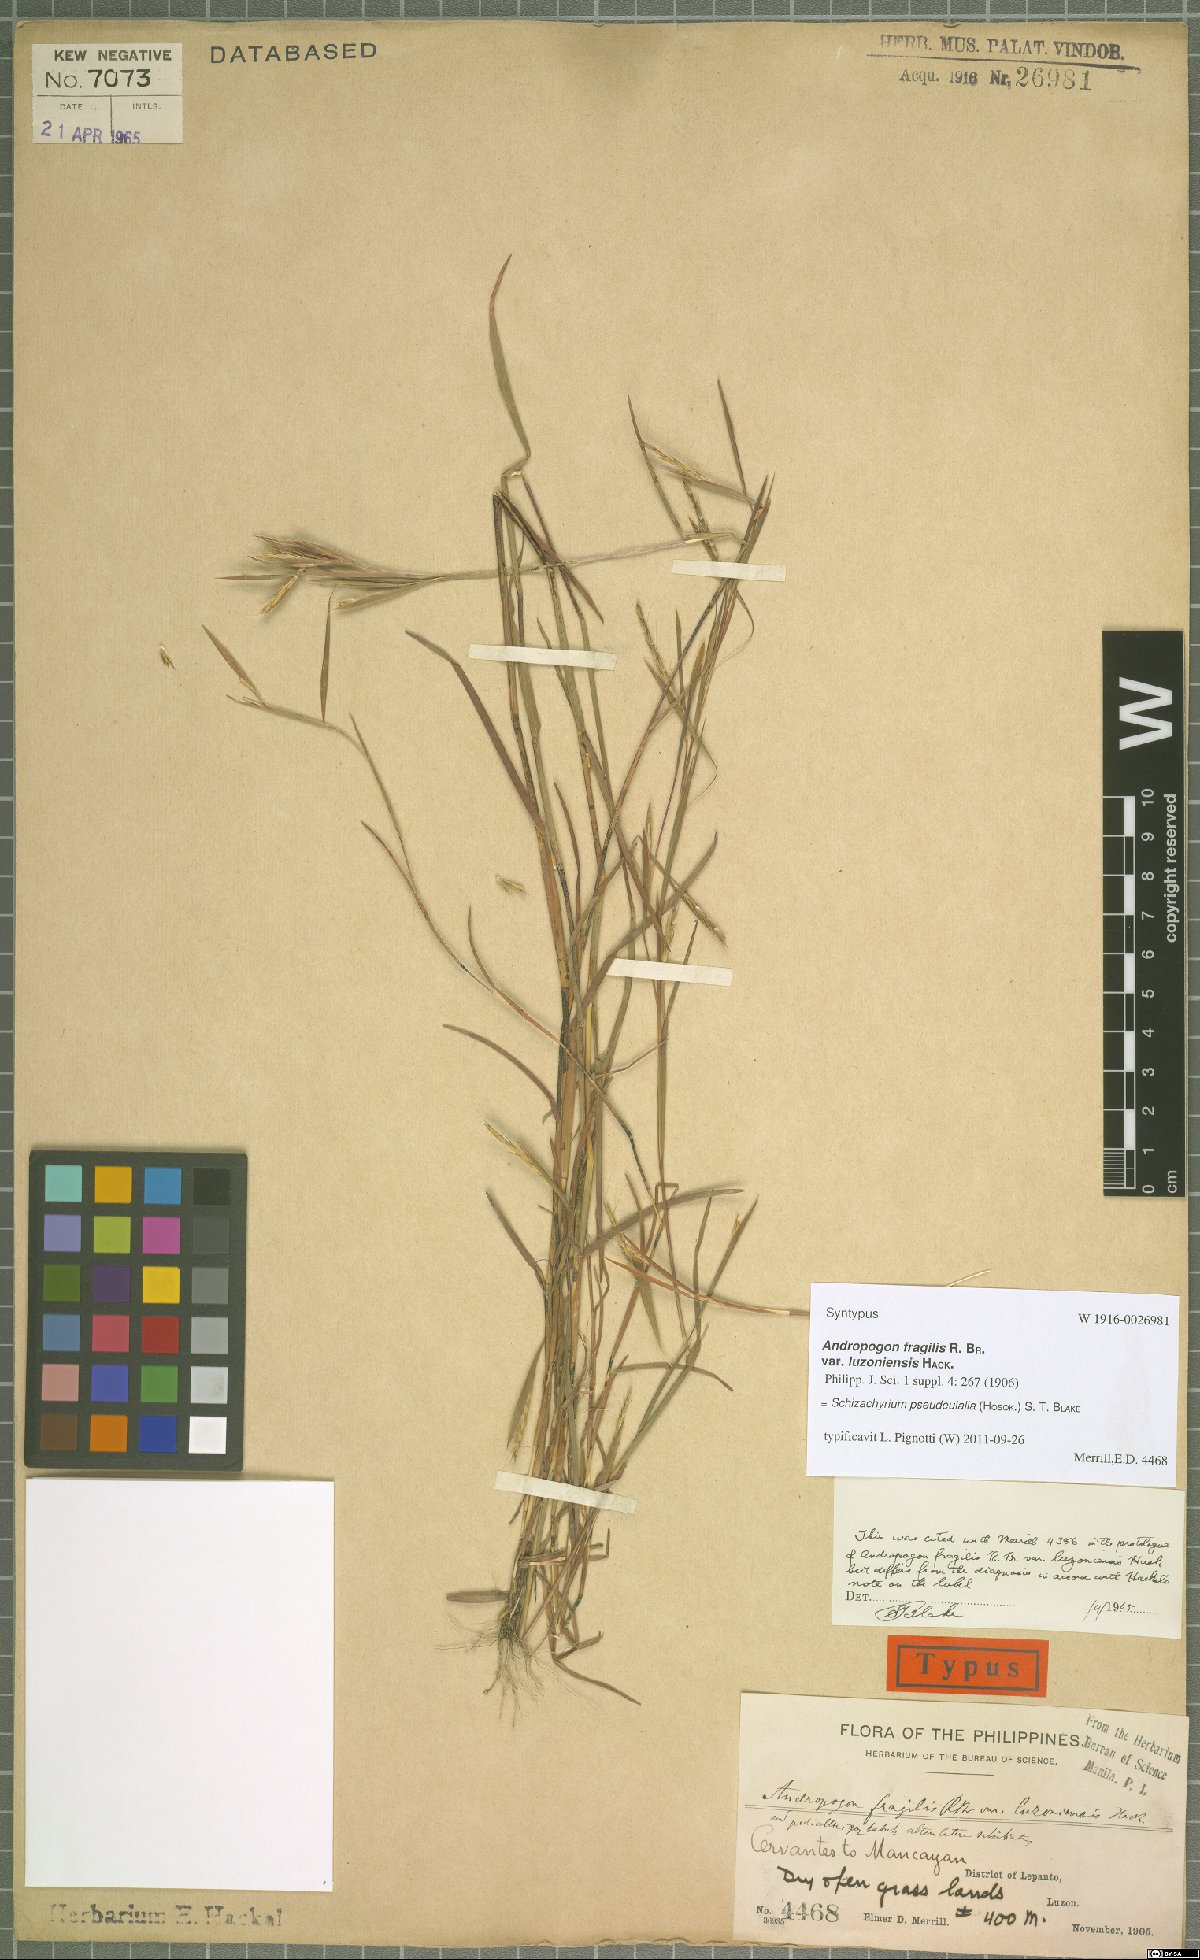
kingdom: Plantae
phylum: Tracheophyta
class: Liliopsida
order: Poales
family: Poaceae
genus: Schizachyrium
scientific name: Schizachyrium pseudeulalia
